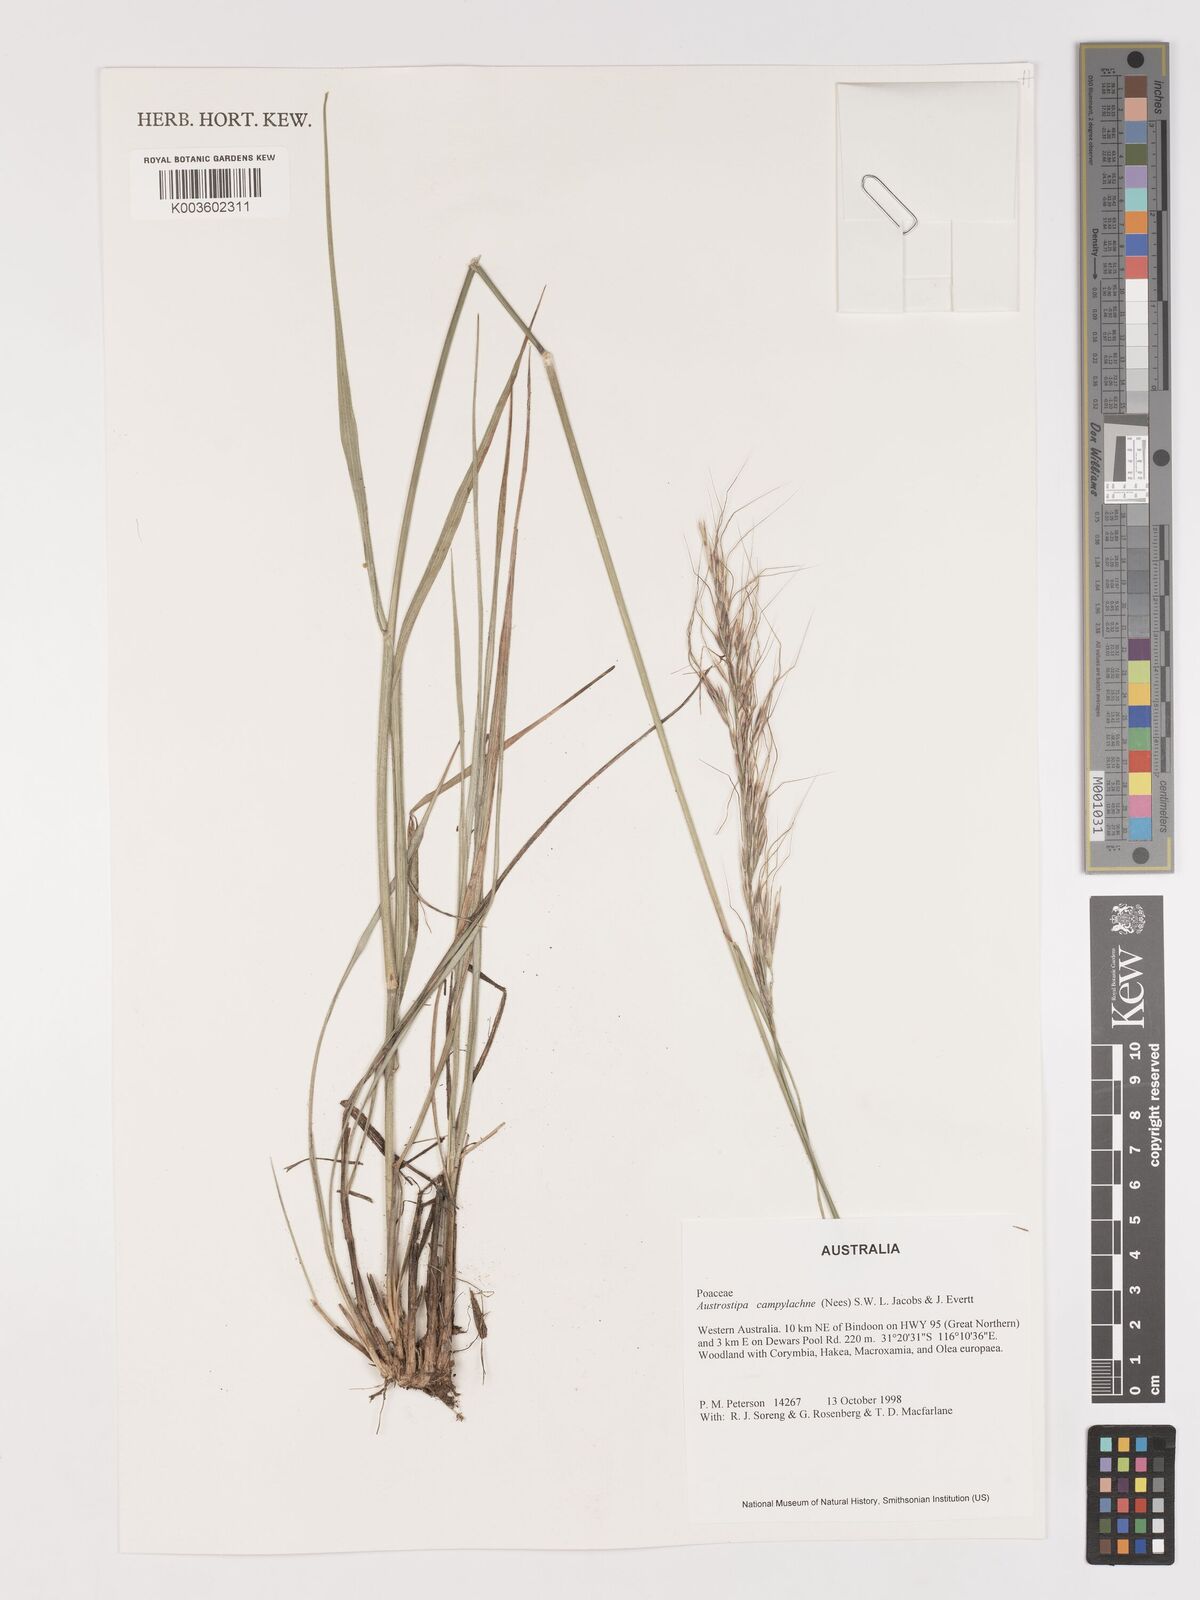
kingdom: Plantae
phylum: Tracheophyta
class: Liliopsida
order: Poales
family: Poaceae
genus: Austrostipa
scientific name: Austrostipa campylachne
